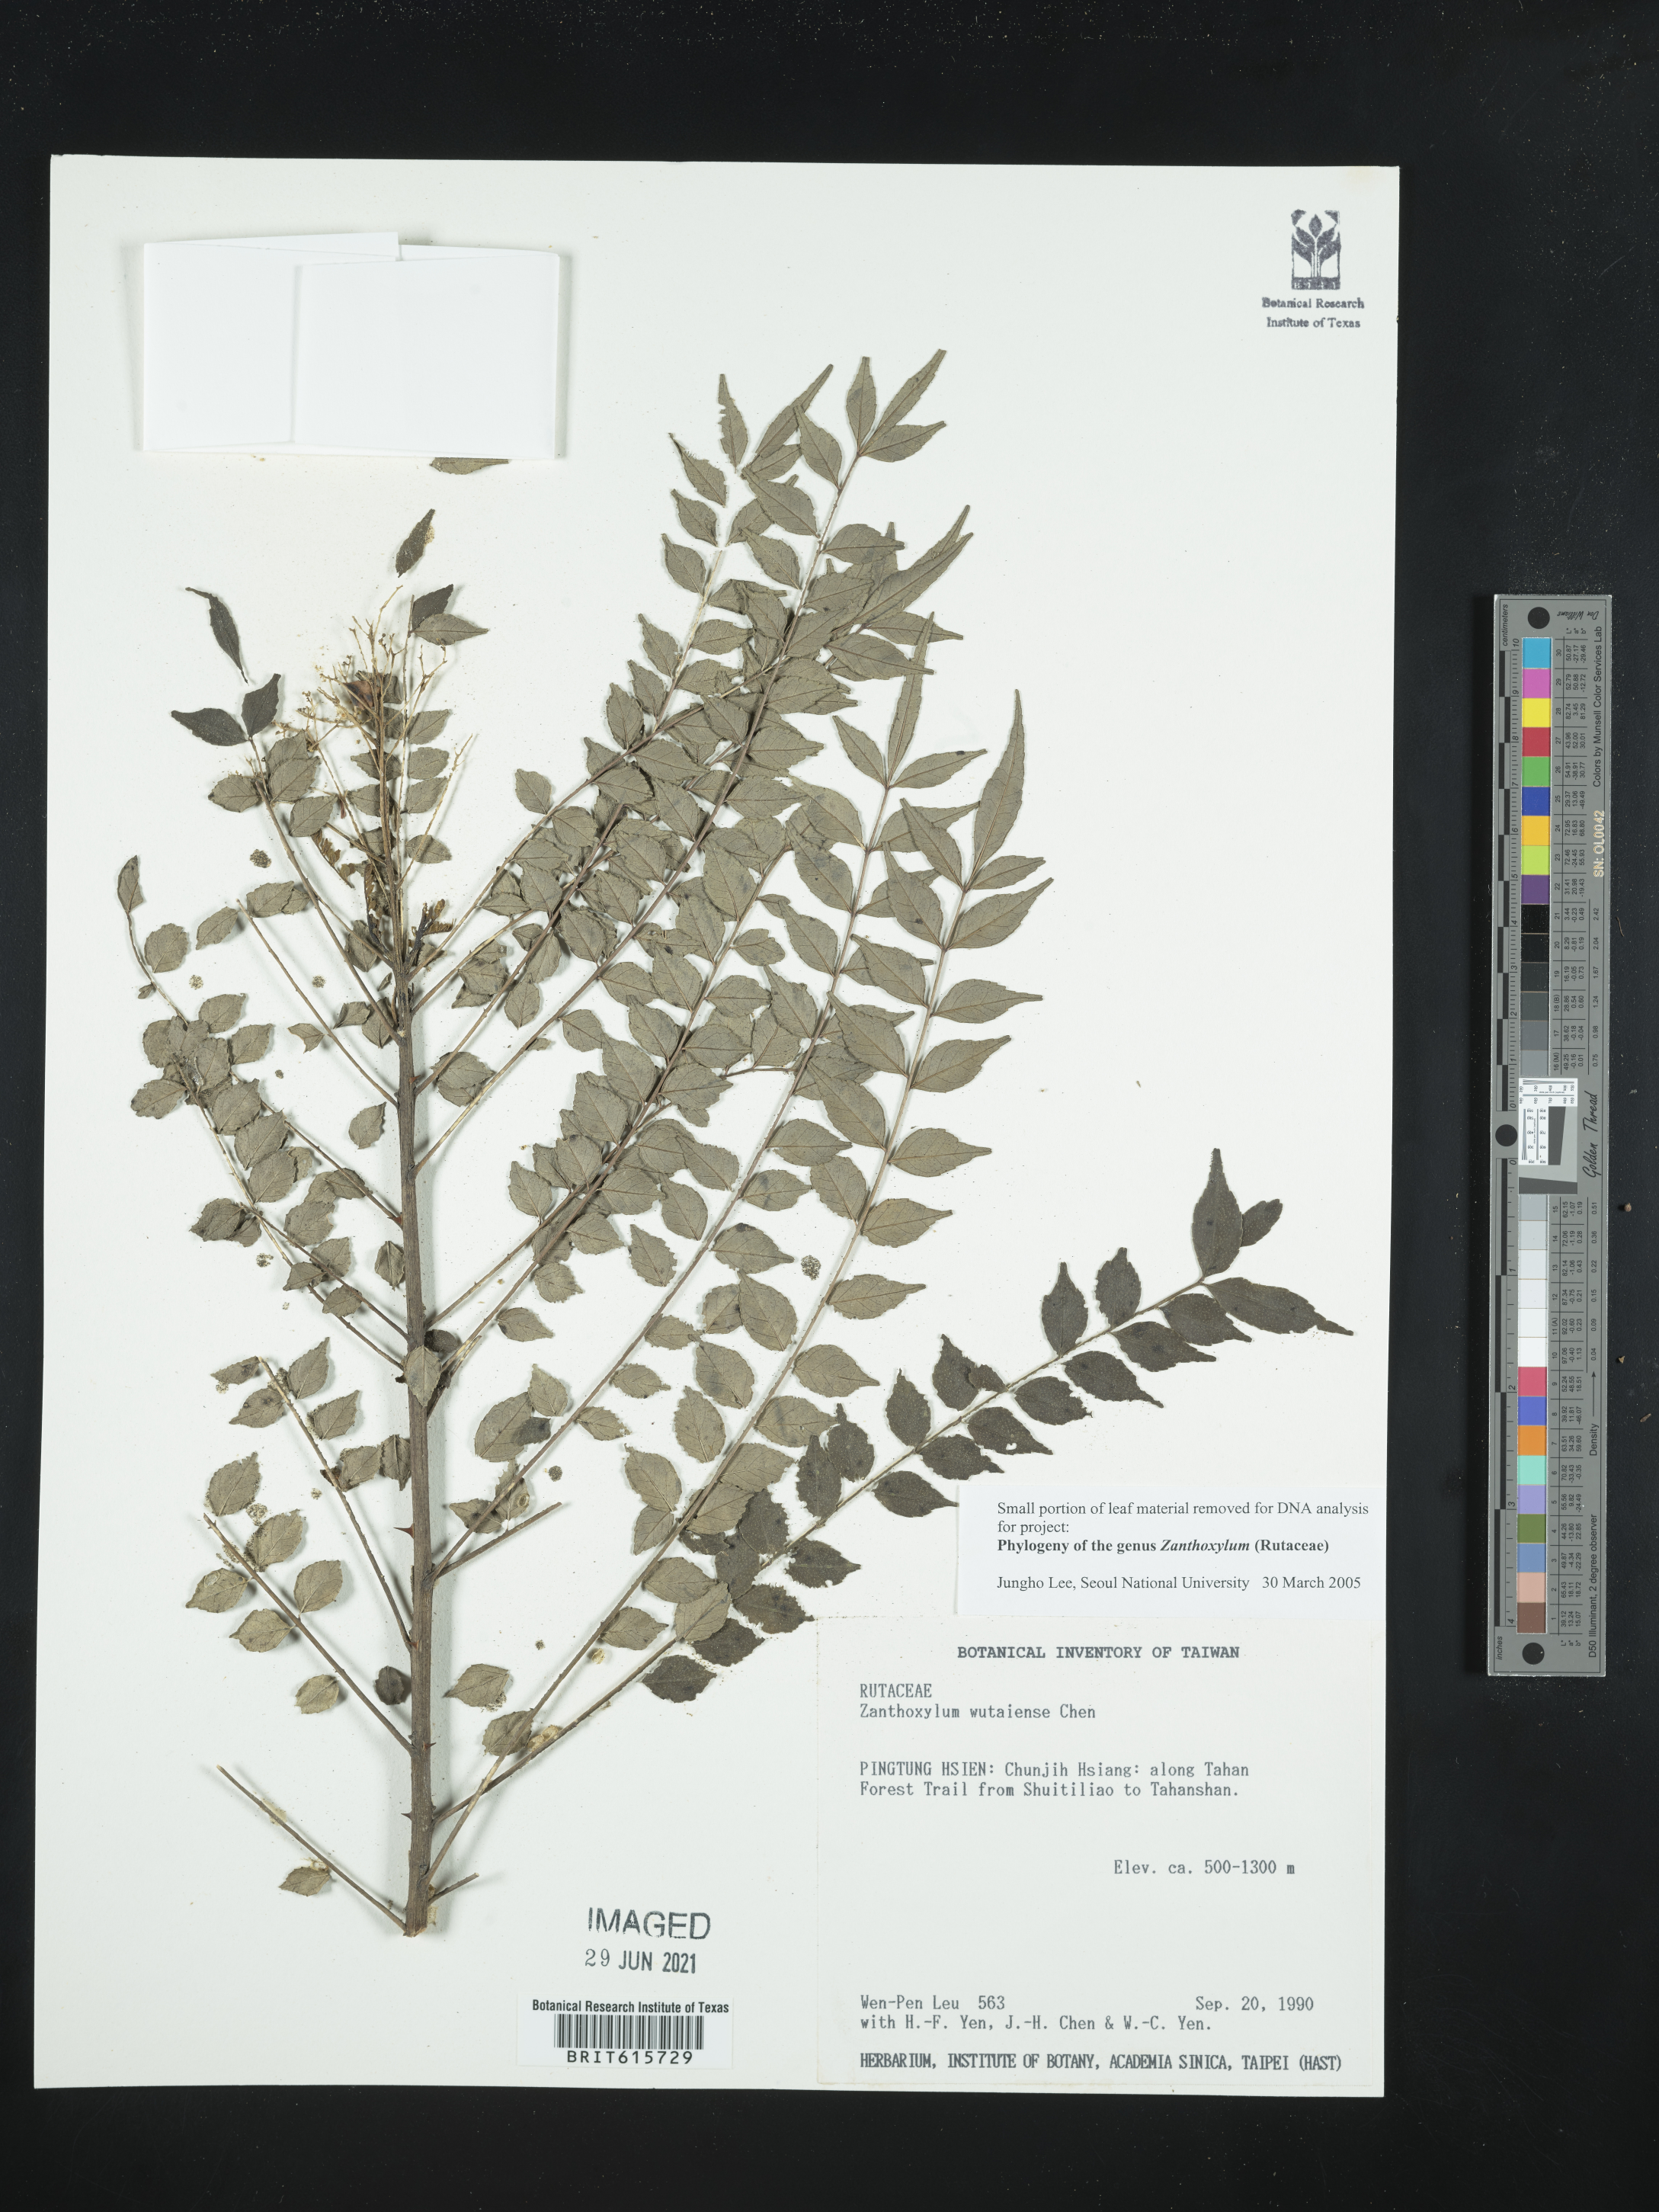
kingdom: Plantae
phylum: Tracheophyta
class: Magnoliopsida
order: Sapindales
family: Rutaceae
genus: Zanthoxylum
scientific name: Zanthoxylum wutaiense
